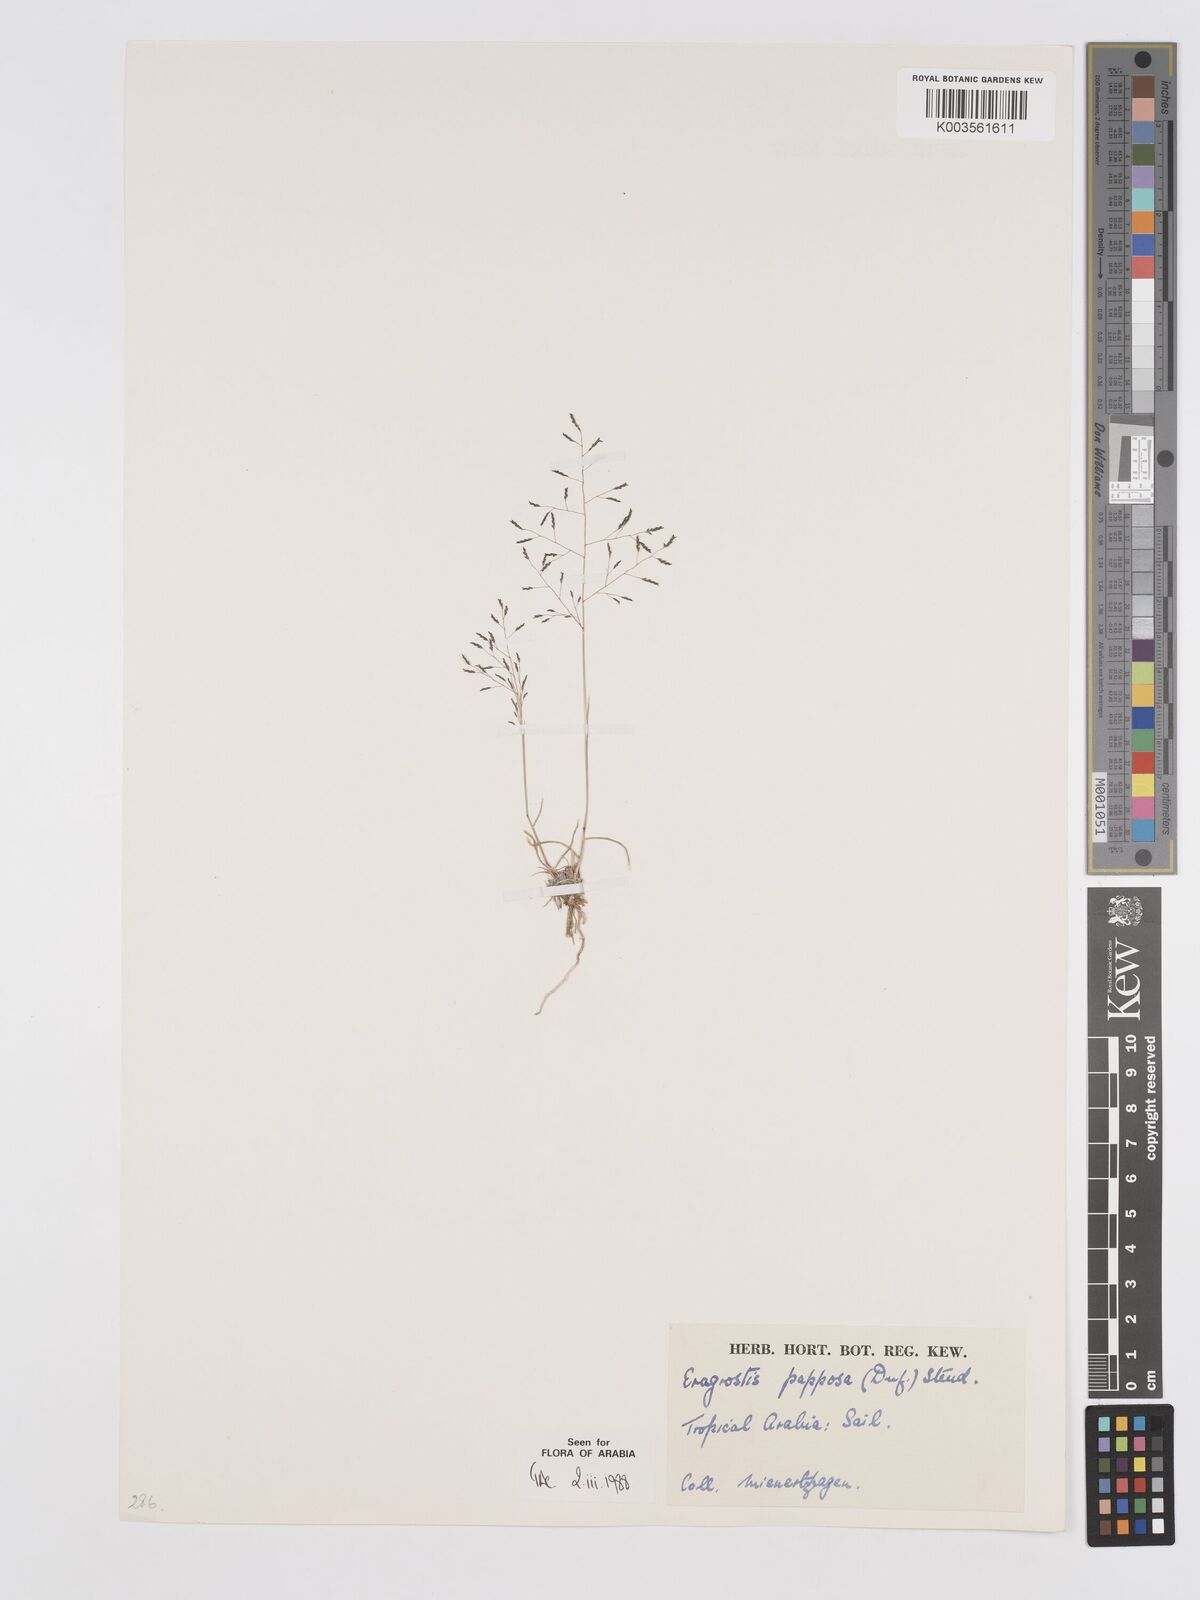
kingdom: Plantae
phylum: Tracheophyta
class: Liliopsida
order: Poales
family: Poaceae
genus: Eragrostis
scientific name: Eragrostis papposa
